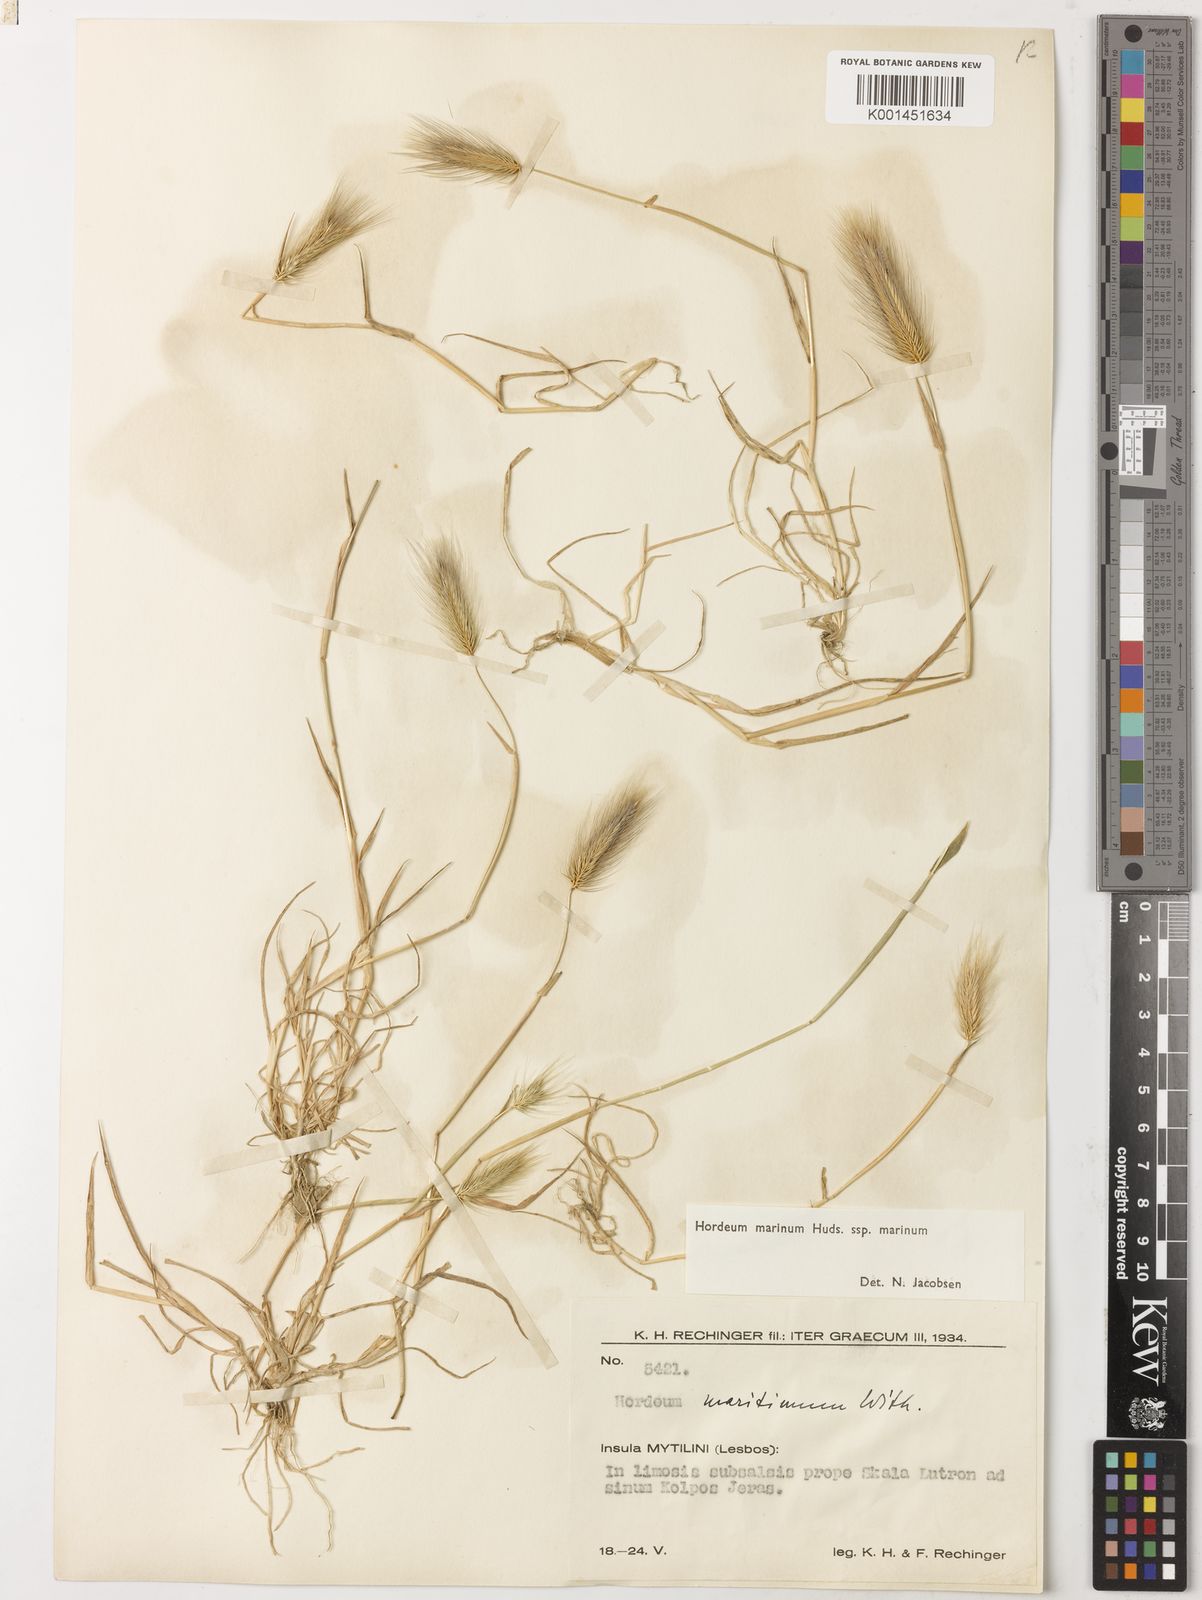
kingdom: Plantae
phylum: Tracheophyta
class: Liliopsida
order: Poales
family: Poaceae
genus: Hordeum
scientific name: Hordeum marinum
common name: Sea barley
